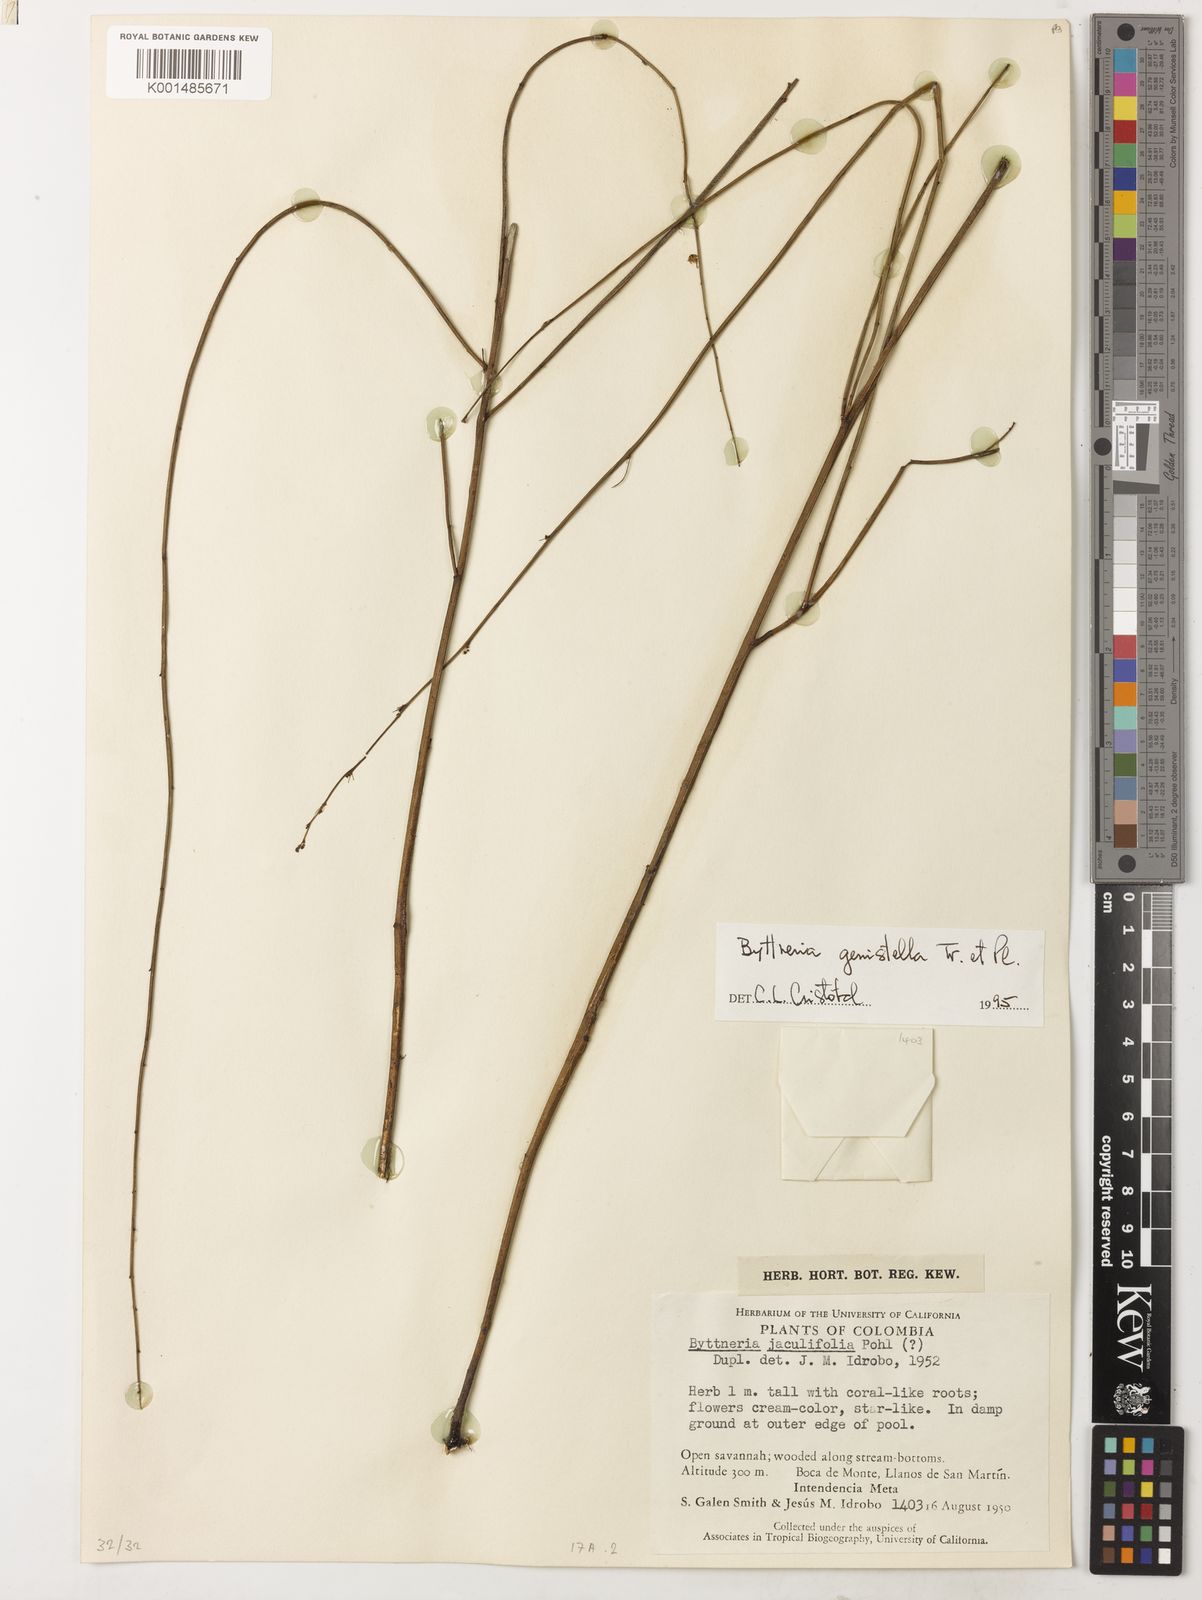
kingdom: Plantae
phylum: Tracheophyta
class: Magnoliopsida
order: Malvales
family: Malvaceae
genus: Byttneria
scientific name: Byttneria genistella
